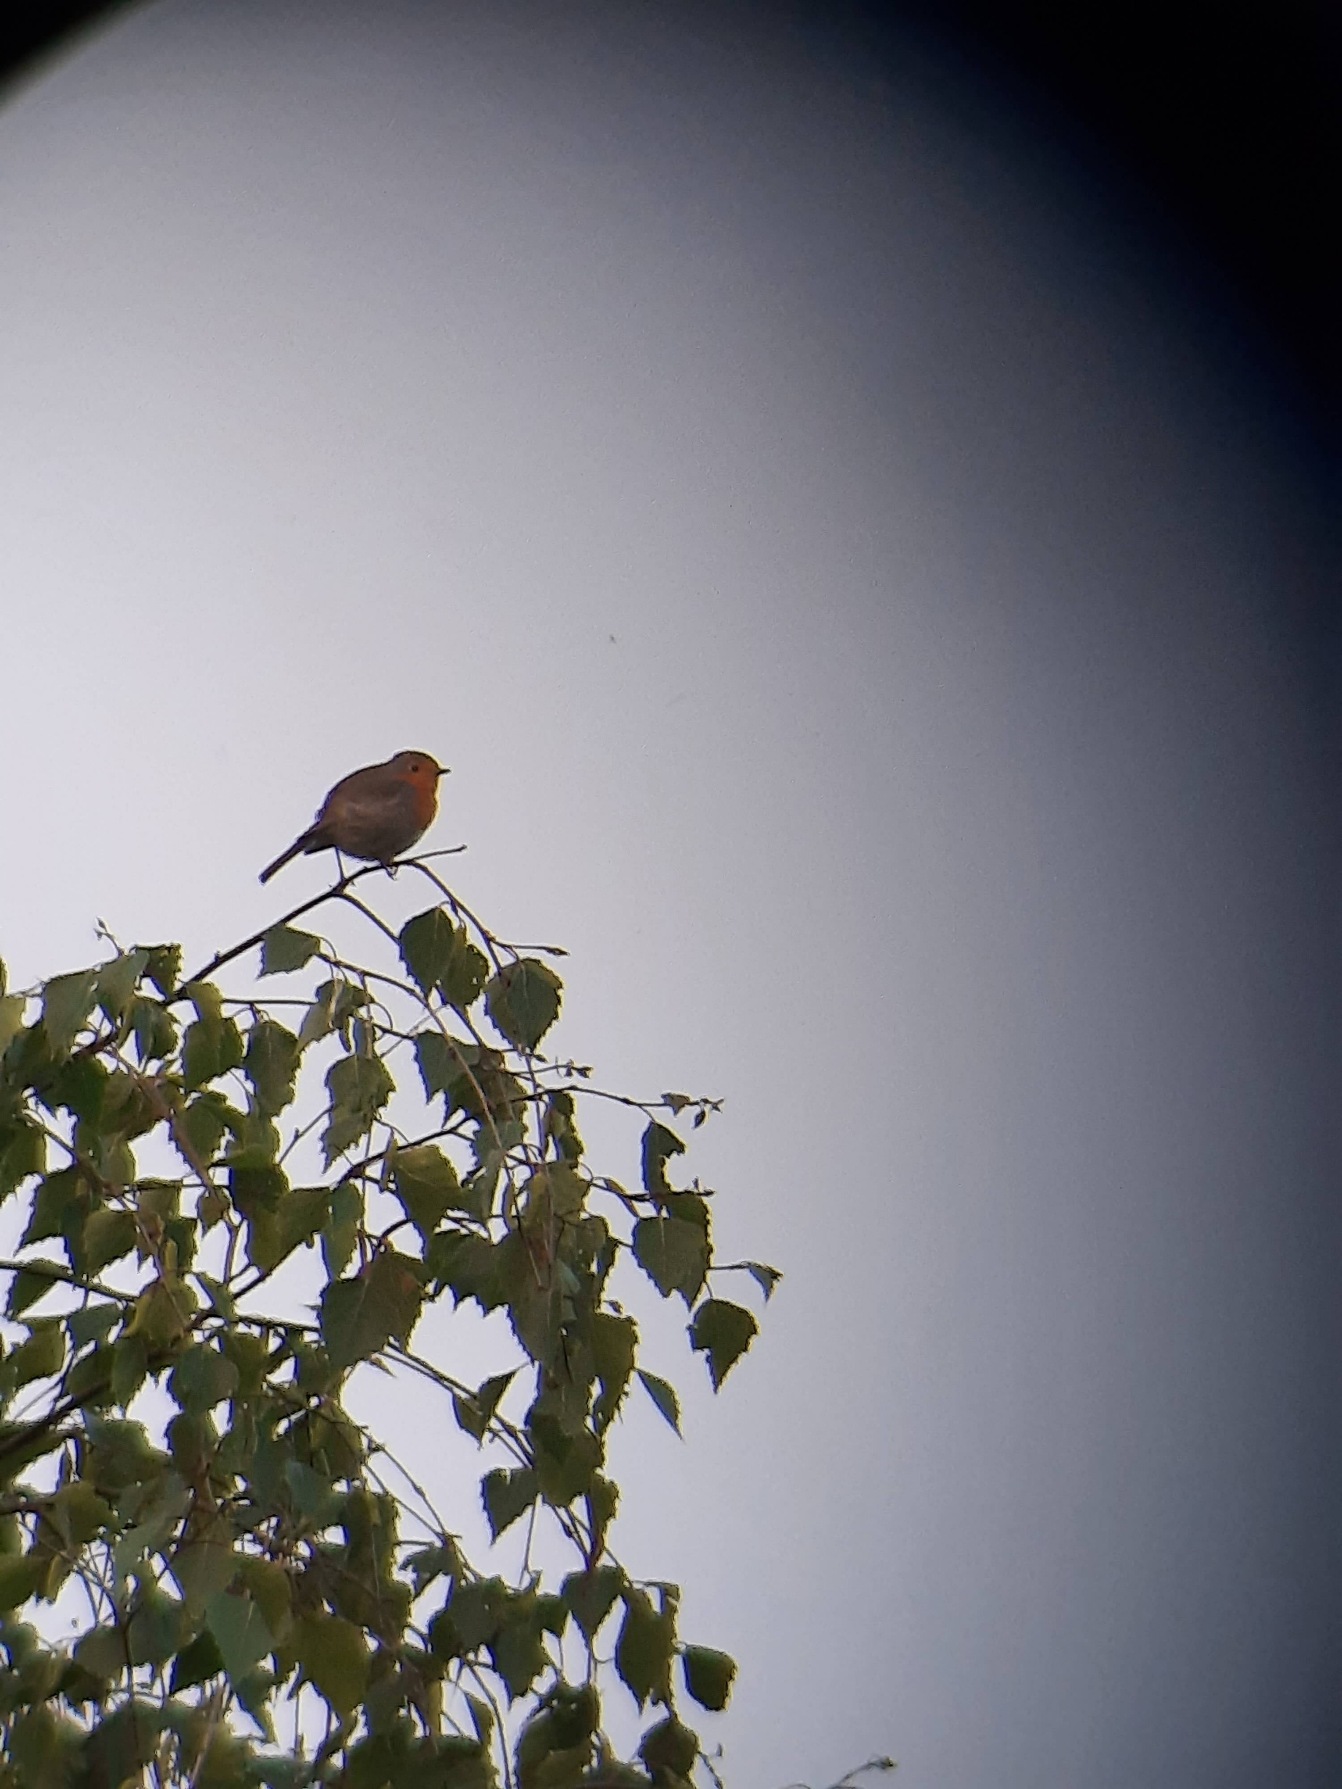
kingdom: Animalia
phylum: Chordata
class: Aves
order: Passeriformes
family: Muscicapidae
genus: Erithacus
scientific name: Erithacus rubecula
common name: Rødhals/rødkælk
